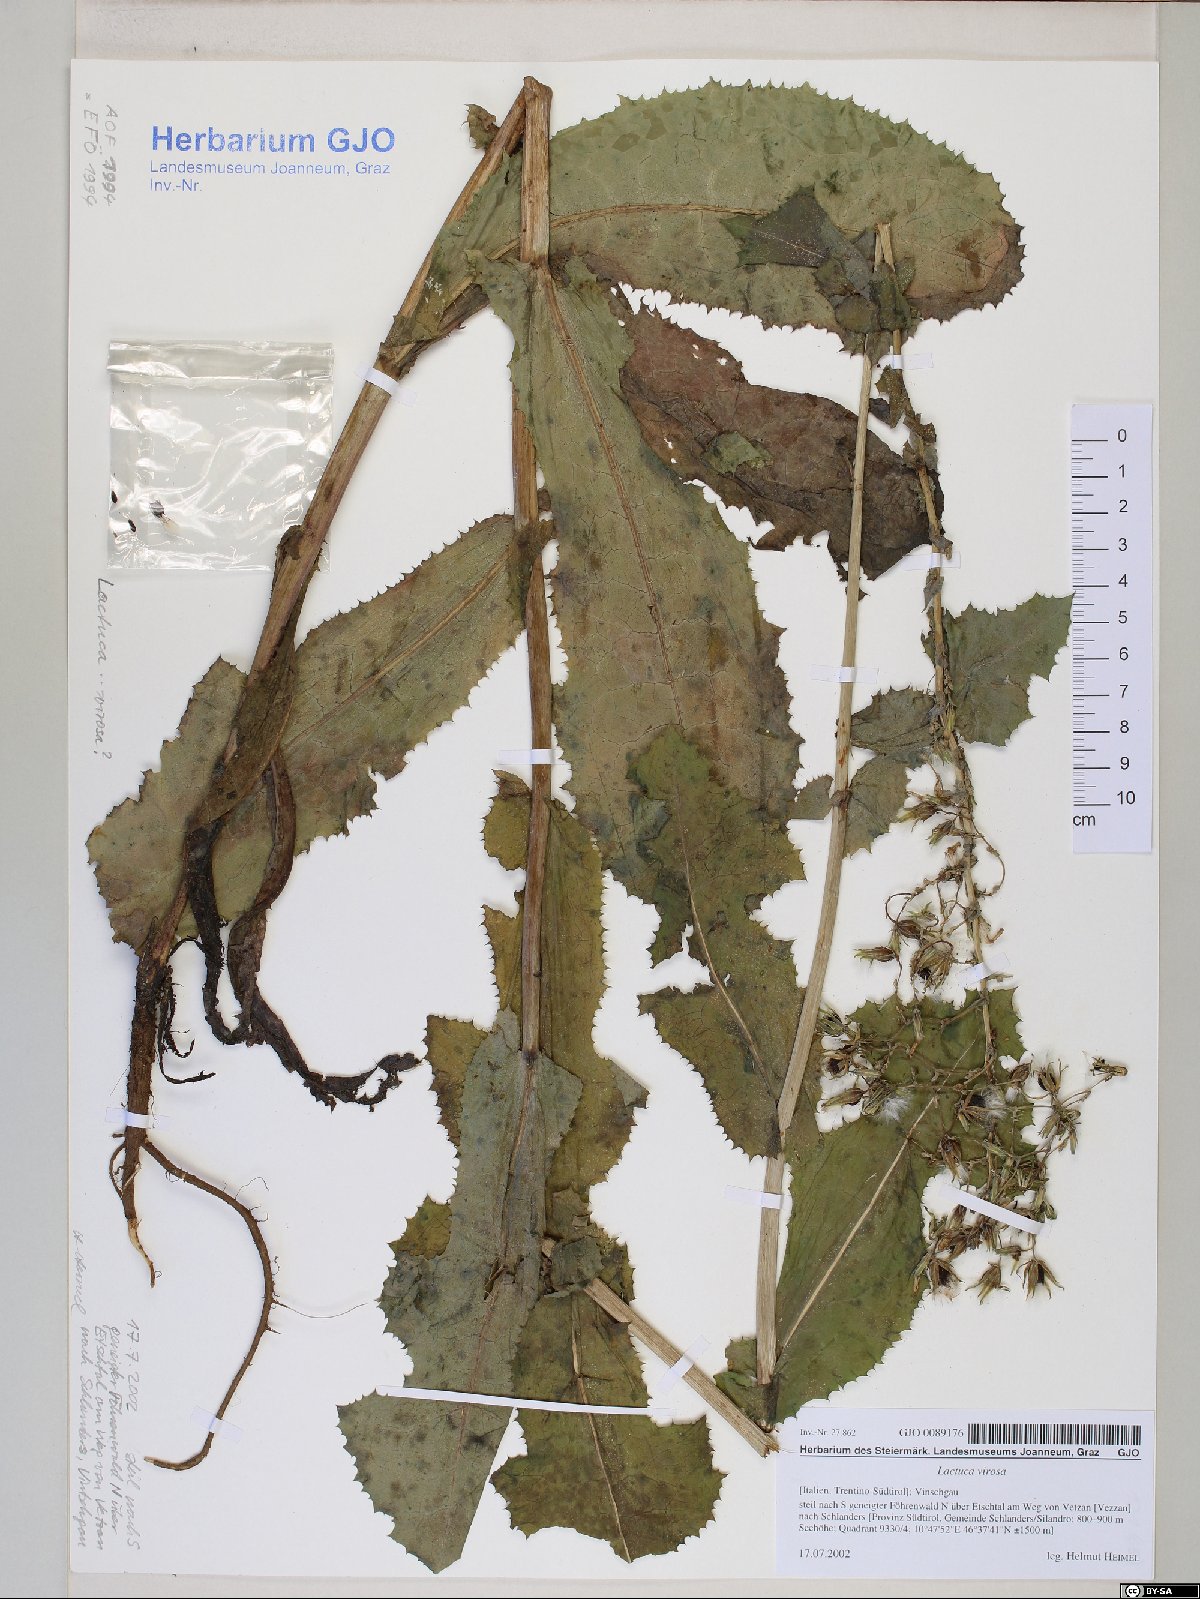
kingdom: Plantae
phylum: Tracheophyta
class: Magnoliopsida
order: Asterales
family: Asteraceae
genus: Lactuca
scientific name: Lactuca virosa
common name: Great lettuce
